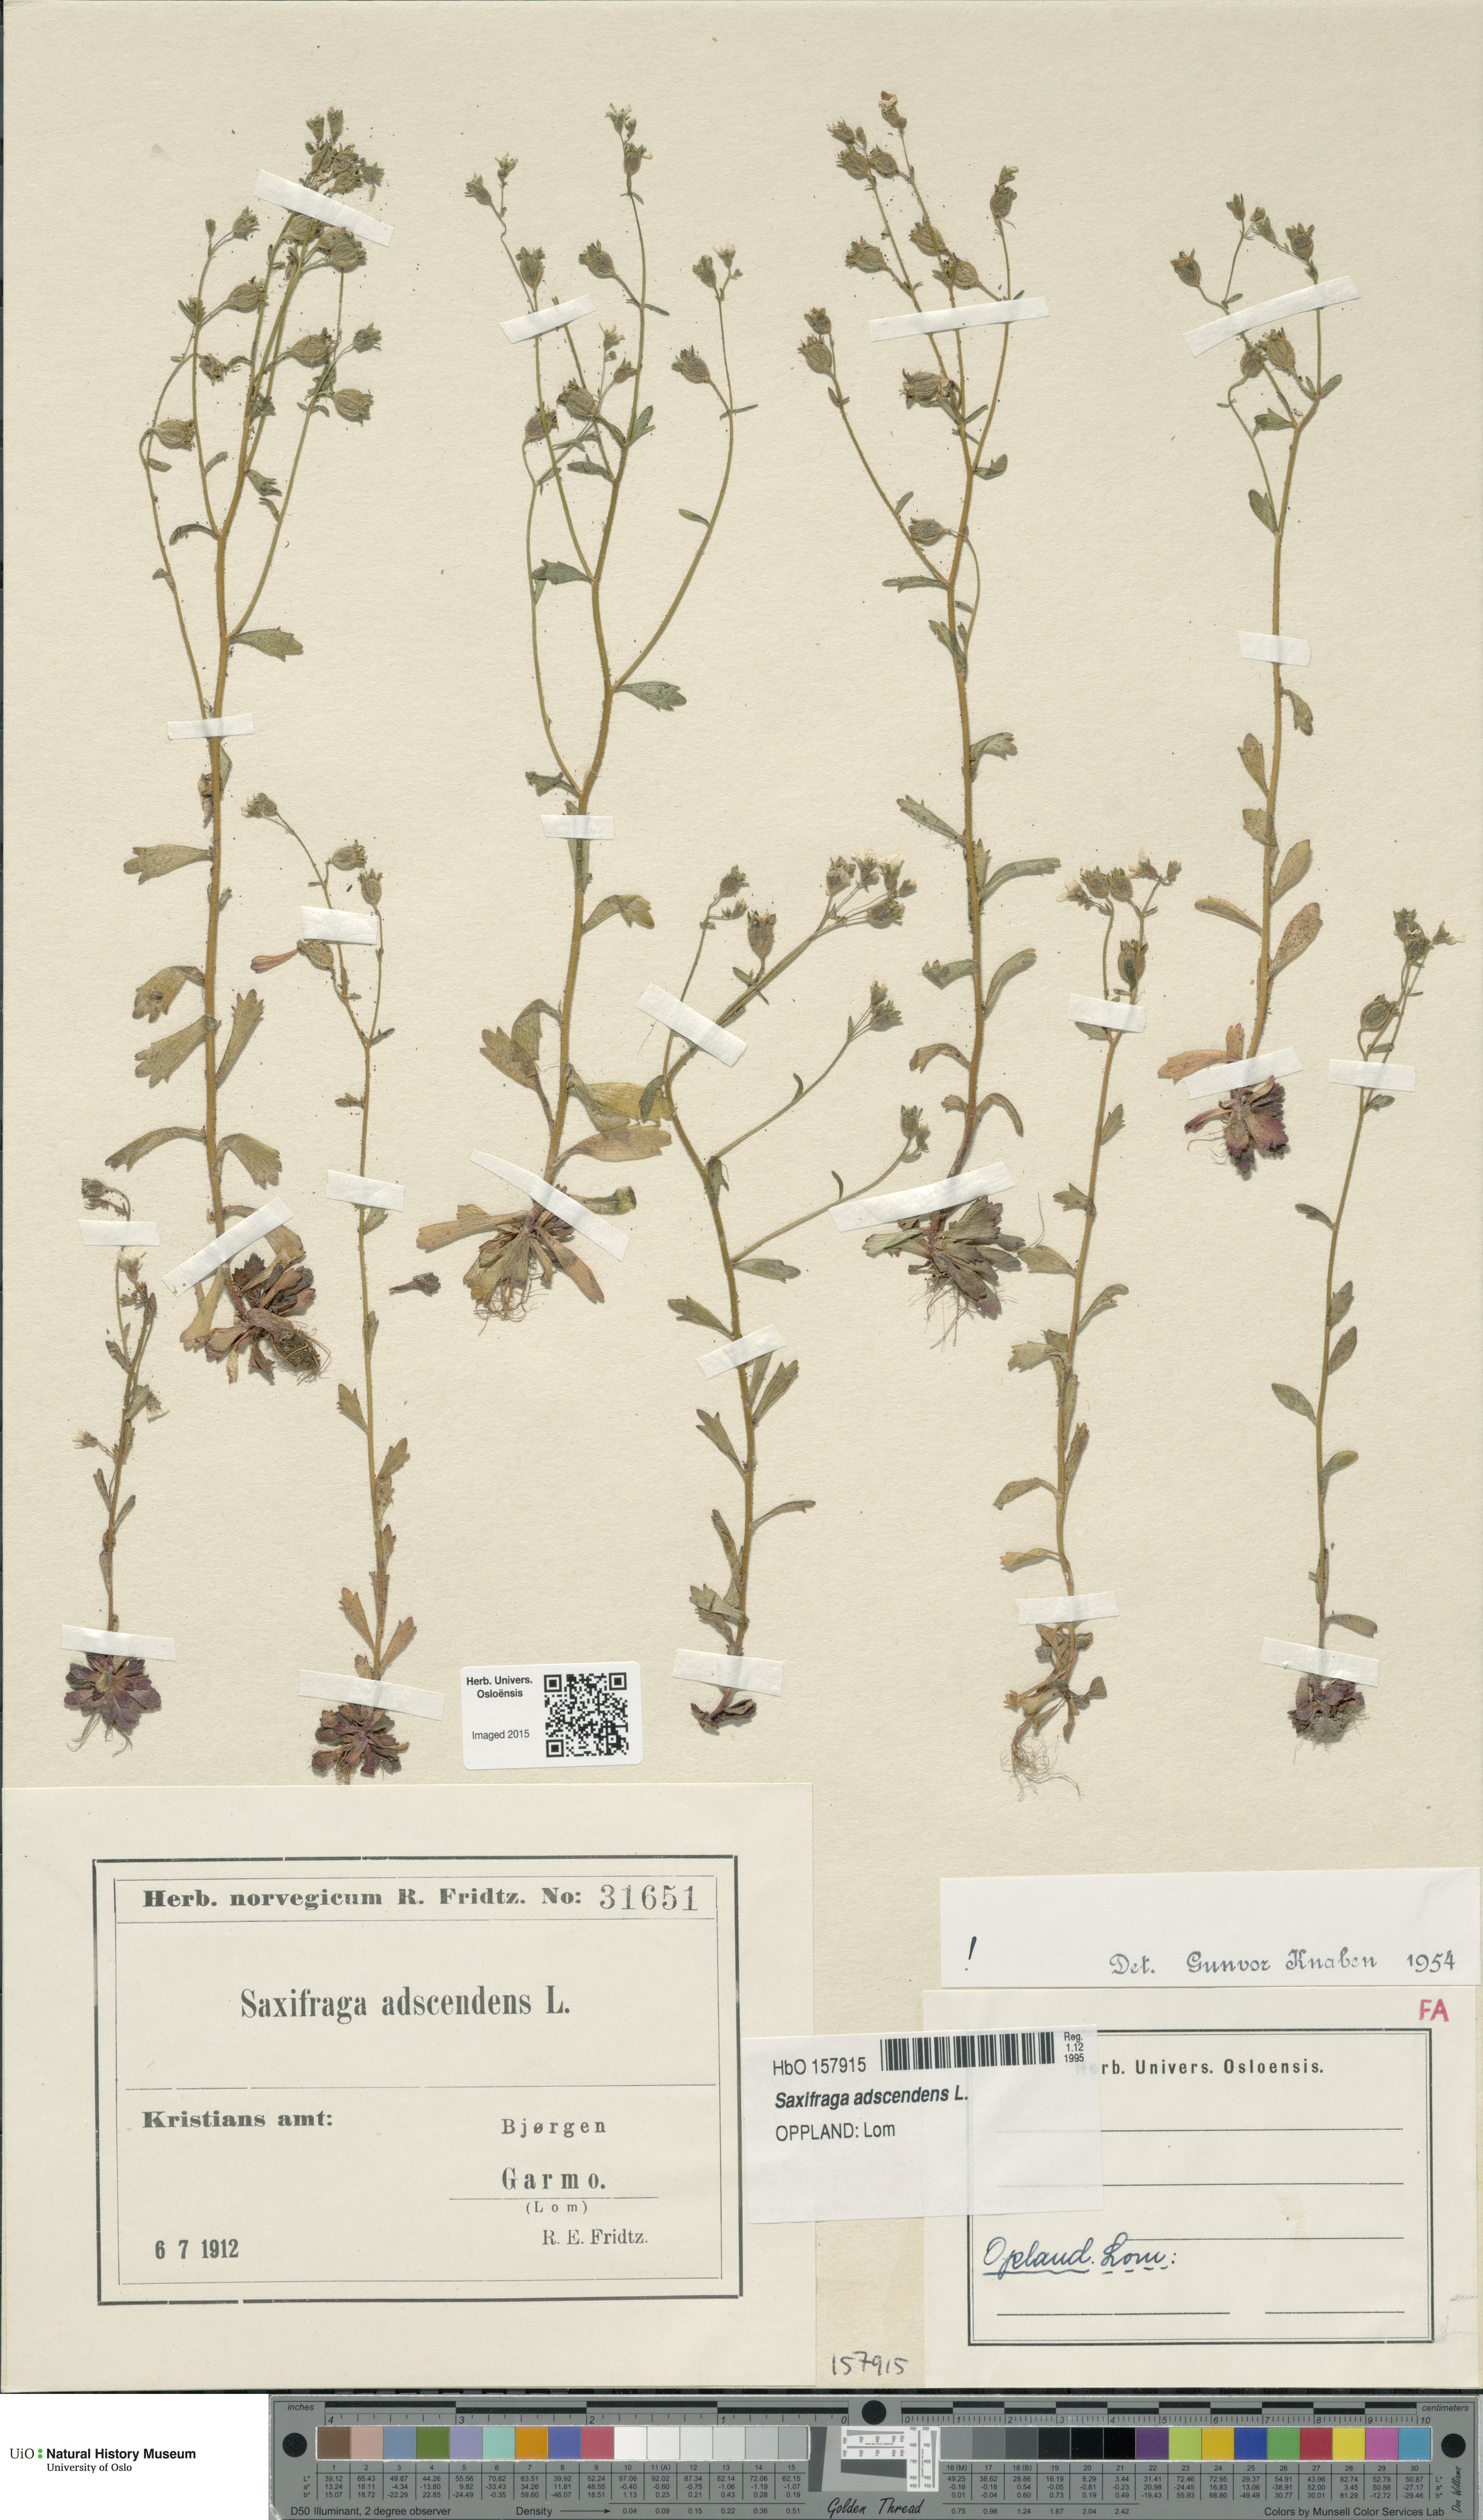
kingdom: Plantae
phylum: Tracheophyta
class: Magnoliopsida
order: Saxifragales
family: Saxifragaceae
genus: Saxifraga
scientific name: Saxifraga adscendens
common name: Ascending saxifrage
